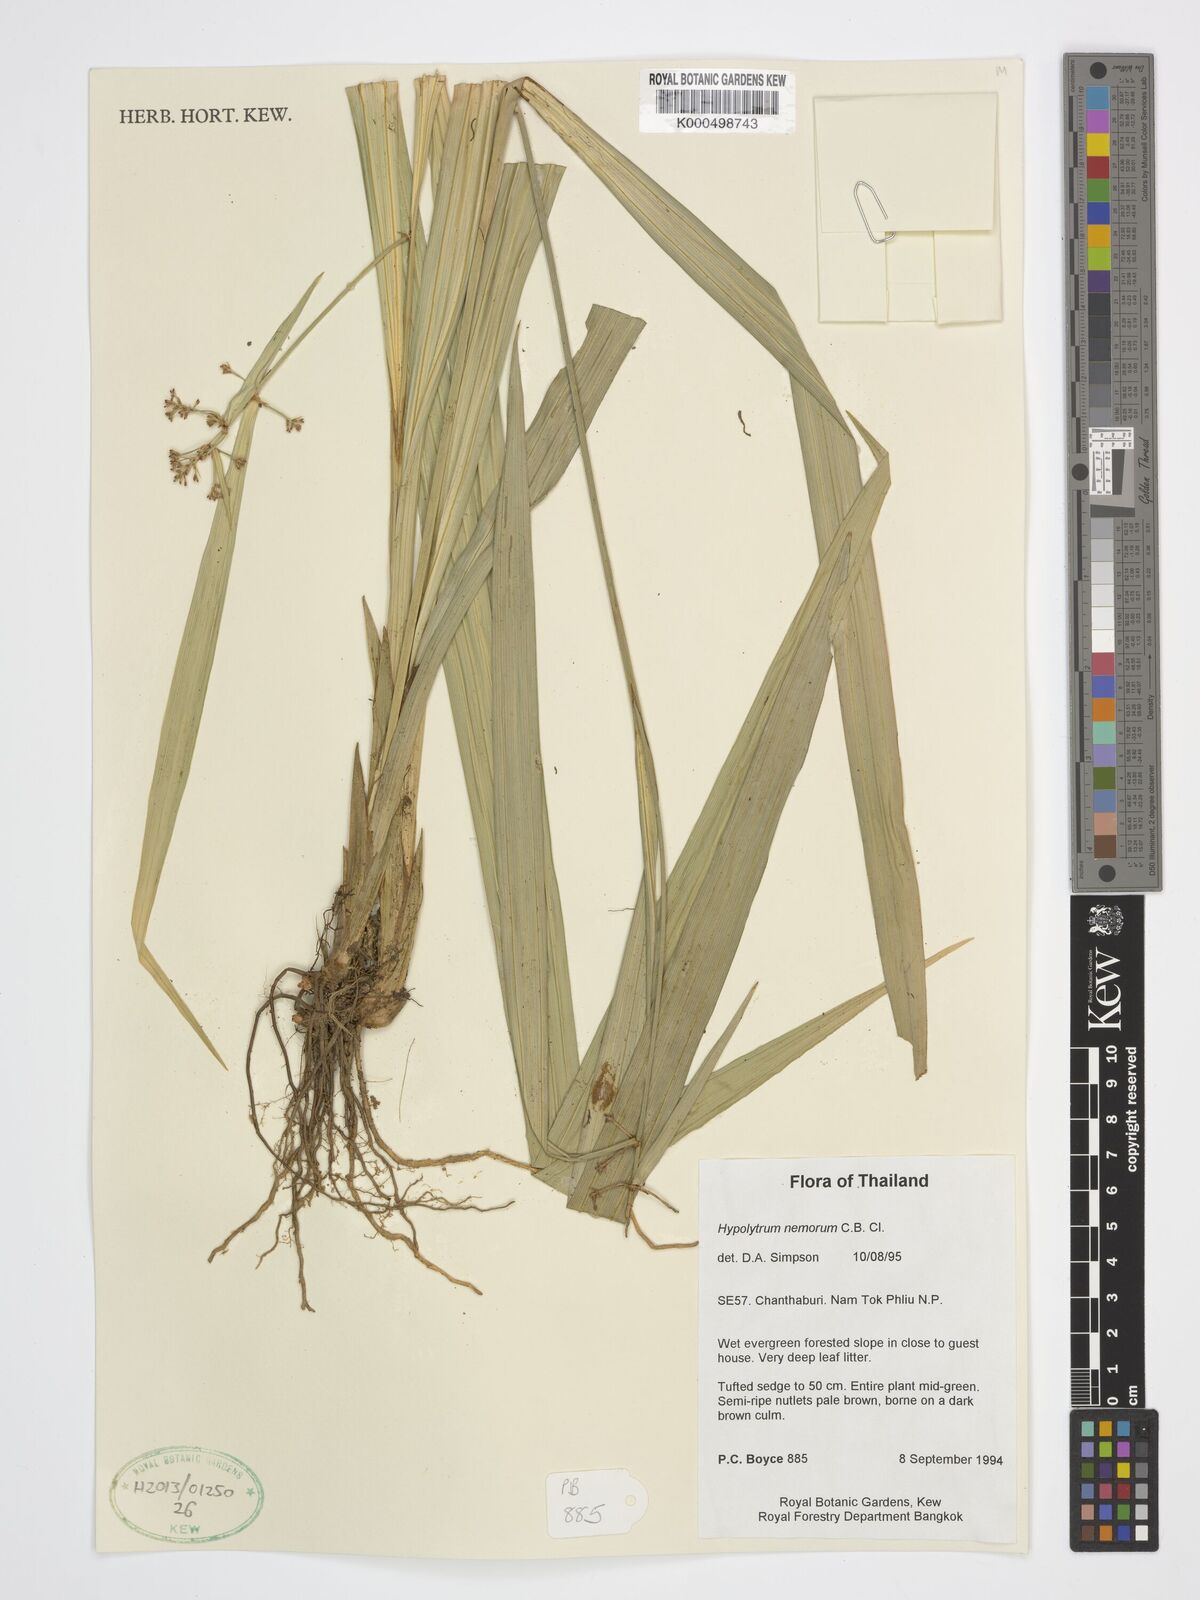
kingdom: Plantae
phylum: Tracheophyta
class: Liliopsida
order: Poales
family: Cyperaceae
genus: Hypolytrum
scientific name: Hypolytrum nemorum
